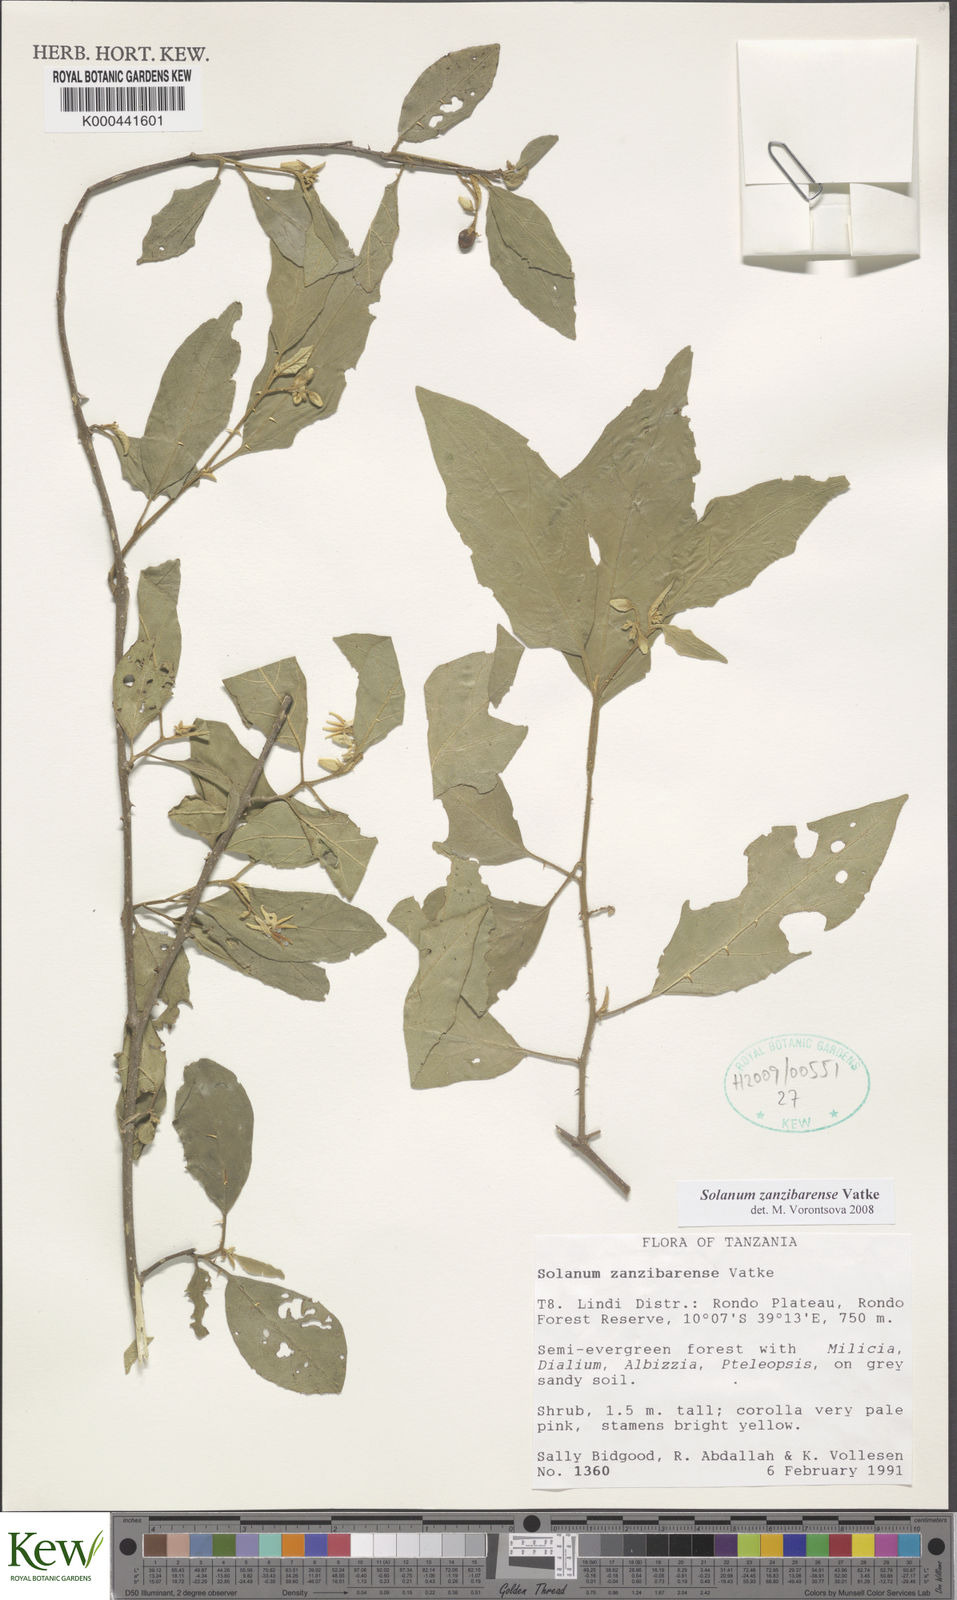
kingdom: Plantae
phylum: Tracheophyta
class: Magnoliopsida
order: Solanales
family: Solanaceae
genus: Solanum
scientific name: Solanum zanzibarense
